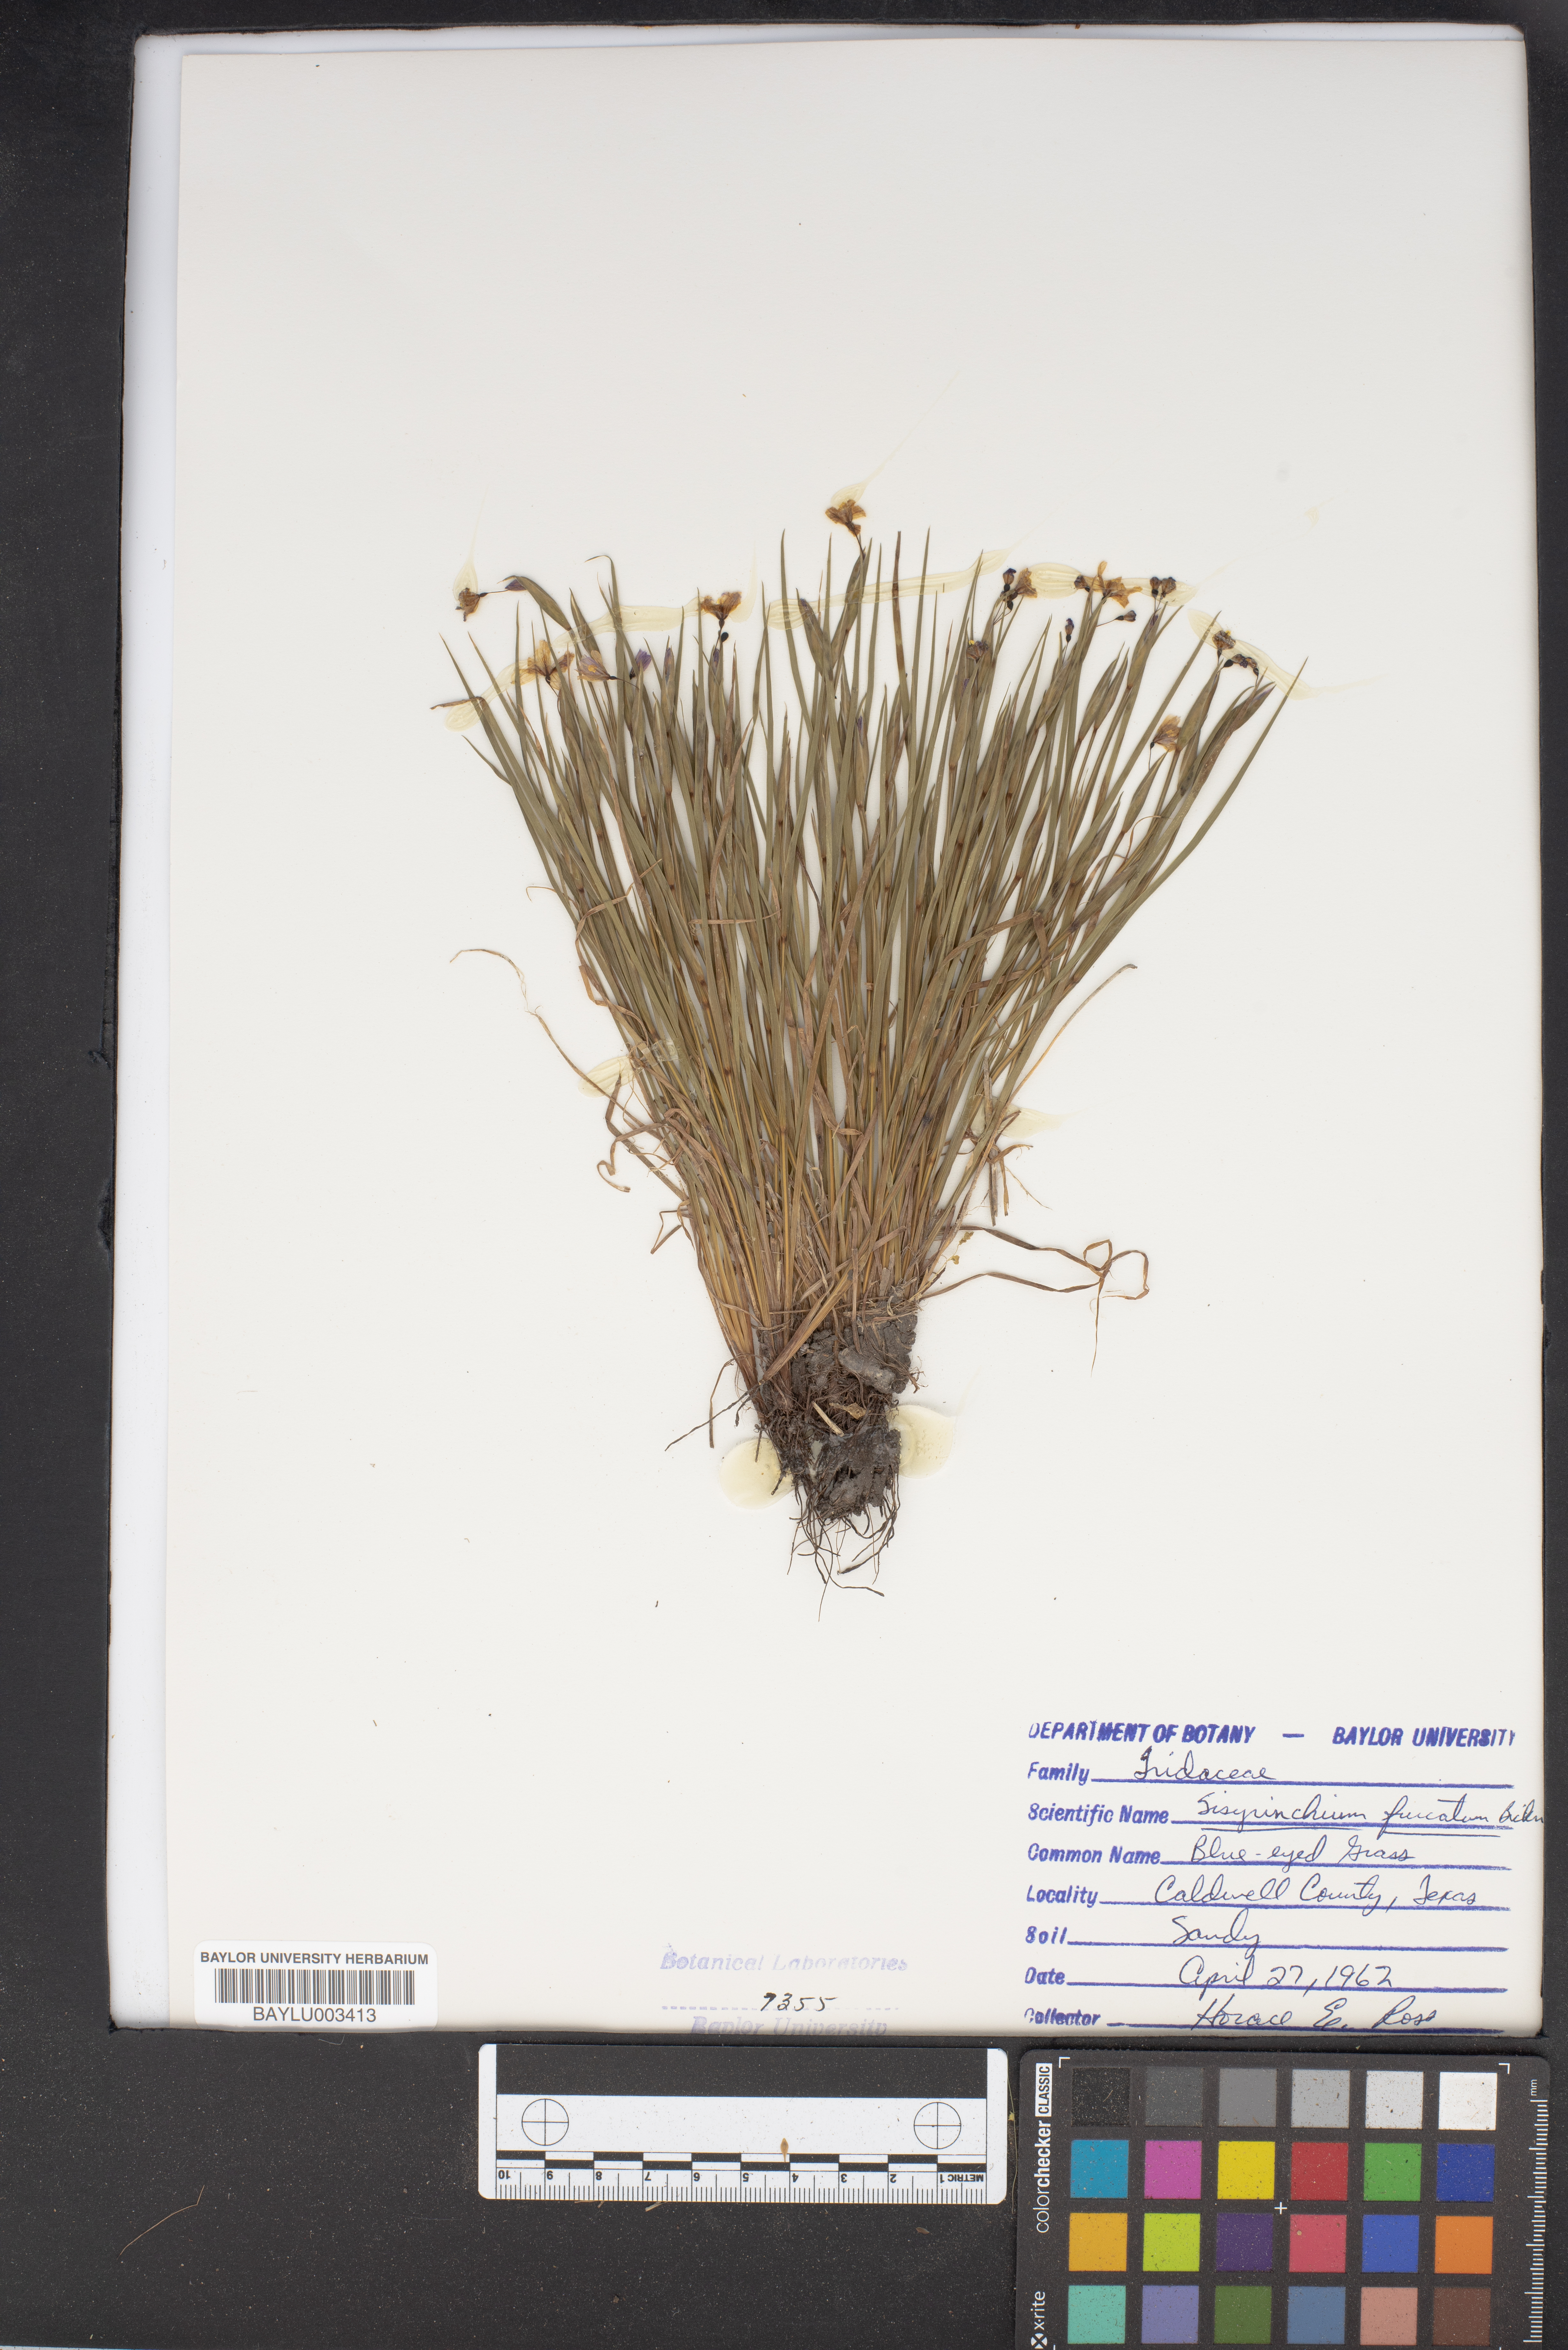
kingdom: Plantae
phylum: Tracheophyta
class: Liliopsida
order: Asparagales
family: Iridaceae
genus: Sisyrinchium
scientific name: Sisyrinchium fuscatum
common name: Coastal plain blue-eyed-grass
